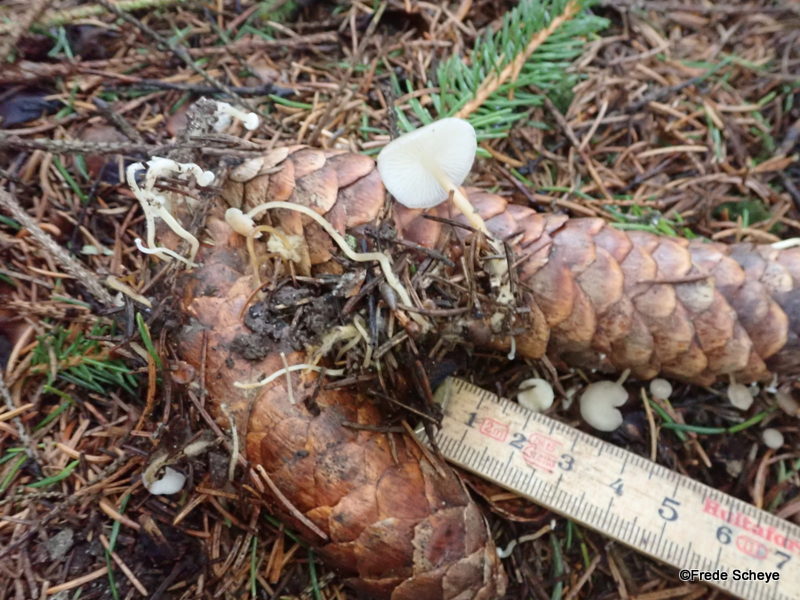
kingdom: Fungi
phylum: Basidiomycota
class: Agaricomycetes
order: Agaricales
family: Physalacriaceae
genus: Strobilurus
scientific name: Strobilurus esculentus
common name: gran-koglehat
